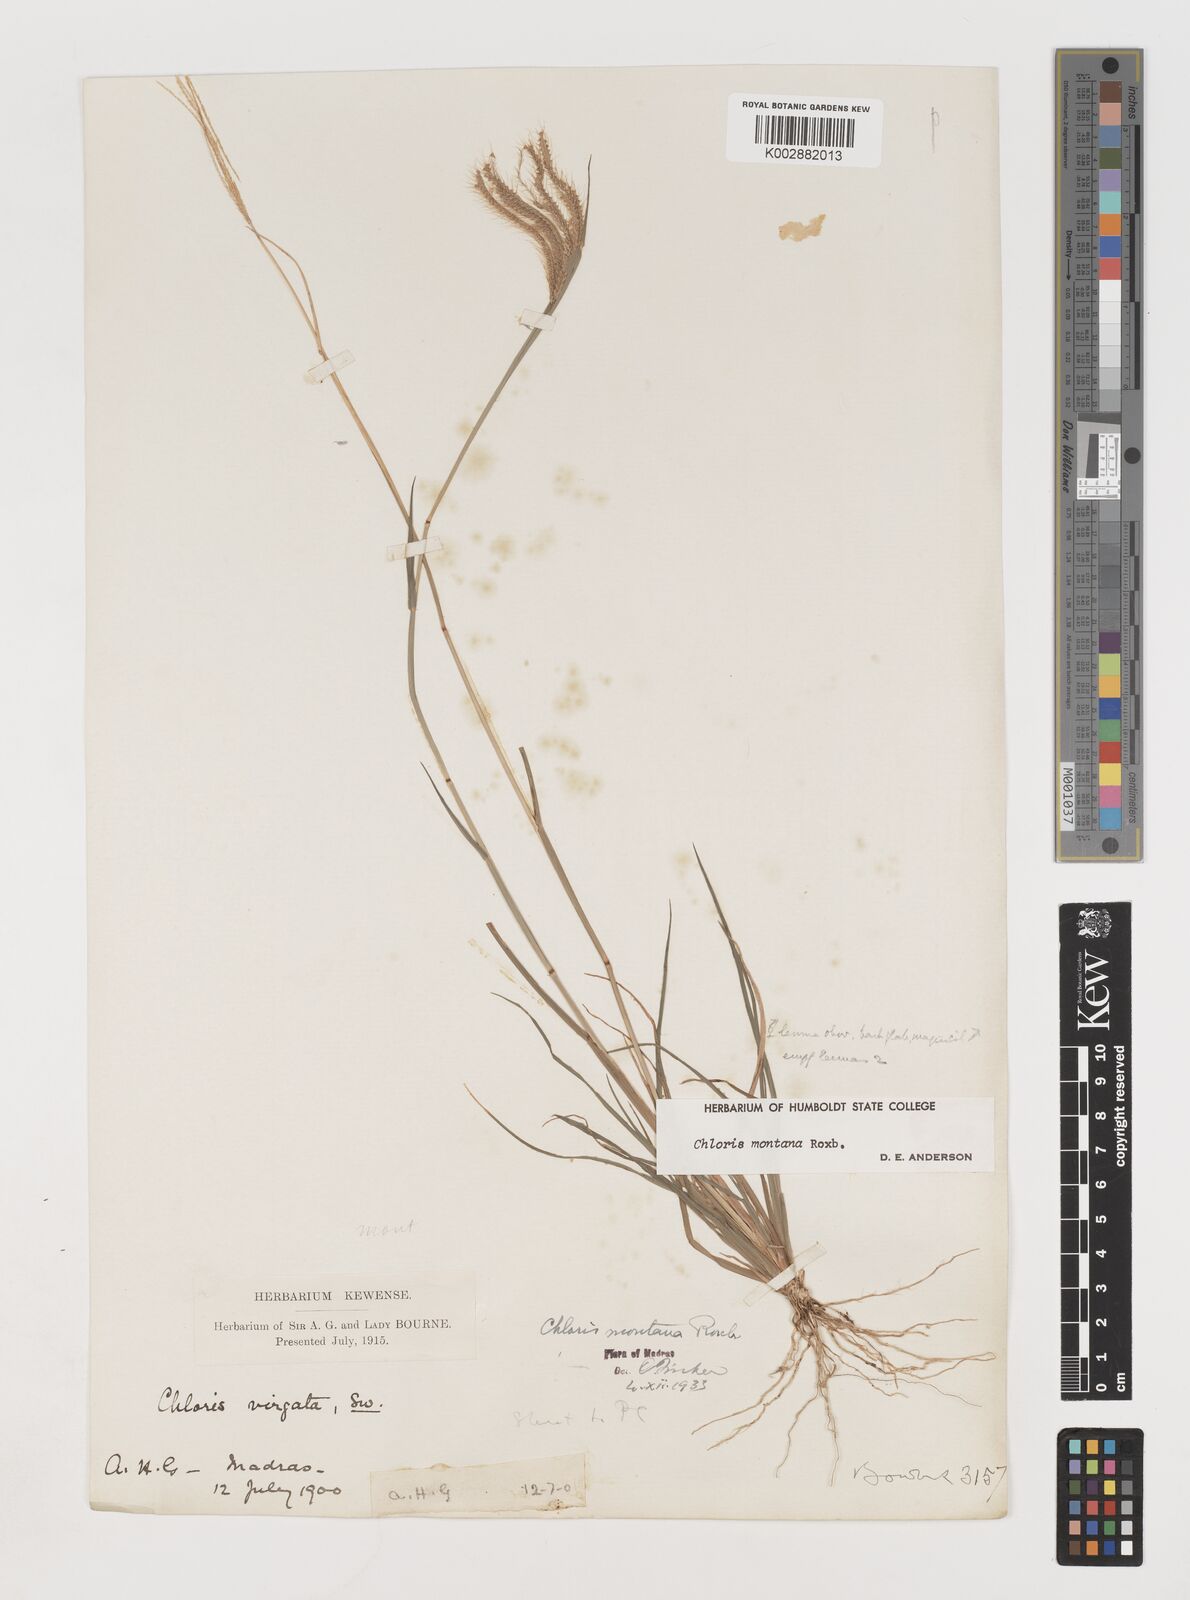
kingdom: Plantae
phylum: Tracheophyta
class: Liliopsida
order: Poales
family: Poaceae
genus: Chloris
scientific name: Chloris montana
